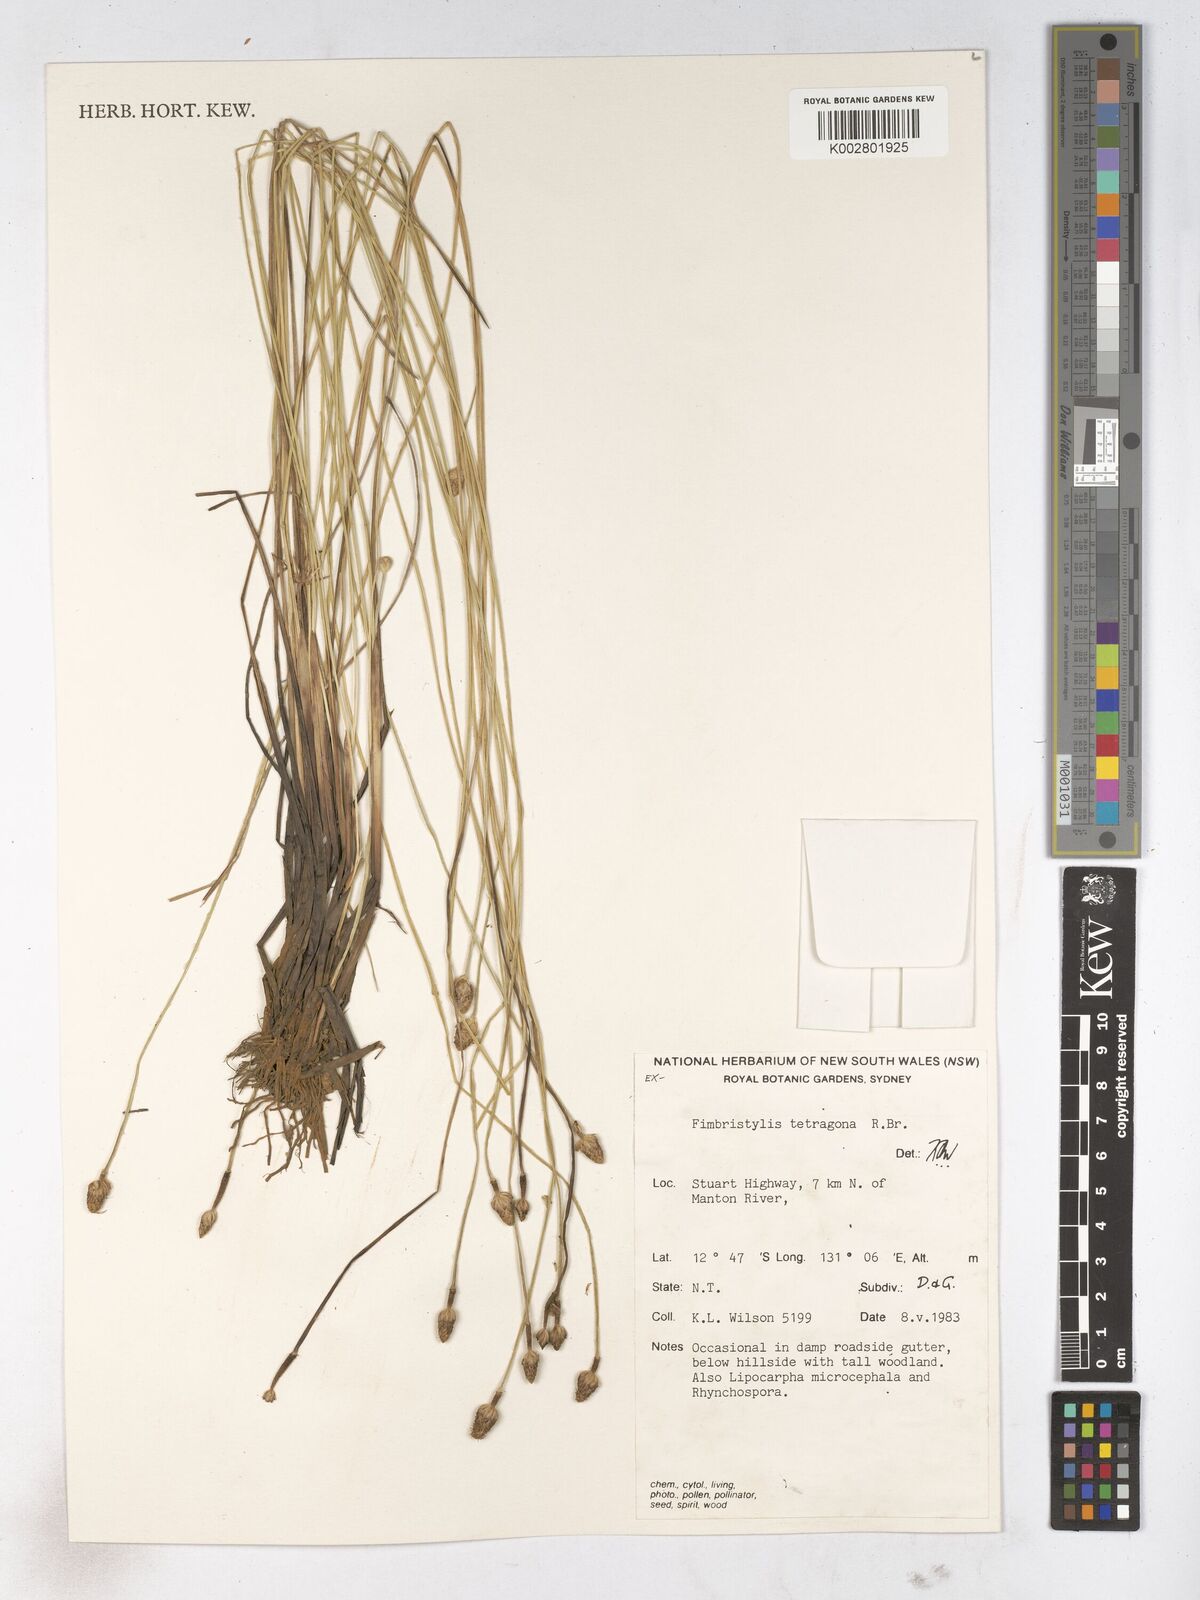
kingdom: Plantae
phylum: Tracheophyta
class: Liliopsida
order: Poales
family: Cyperaceae
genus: Fimbristylis
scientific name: Fimbristylis tetragona
